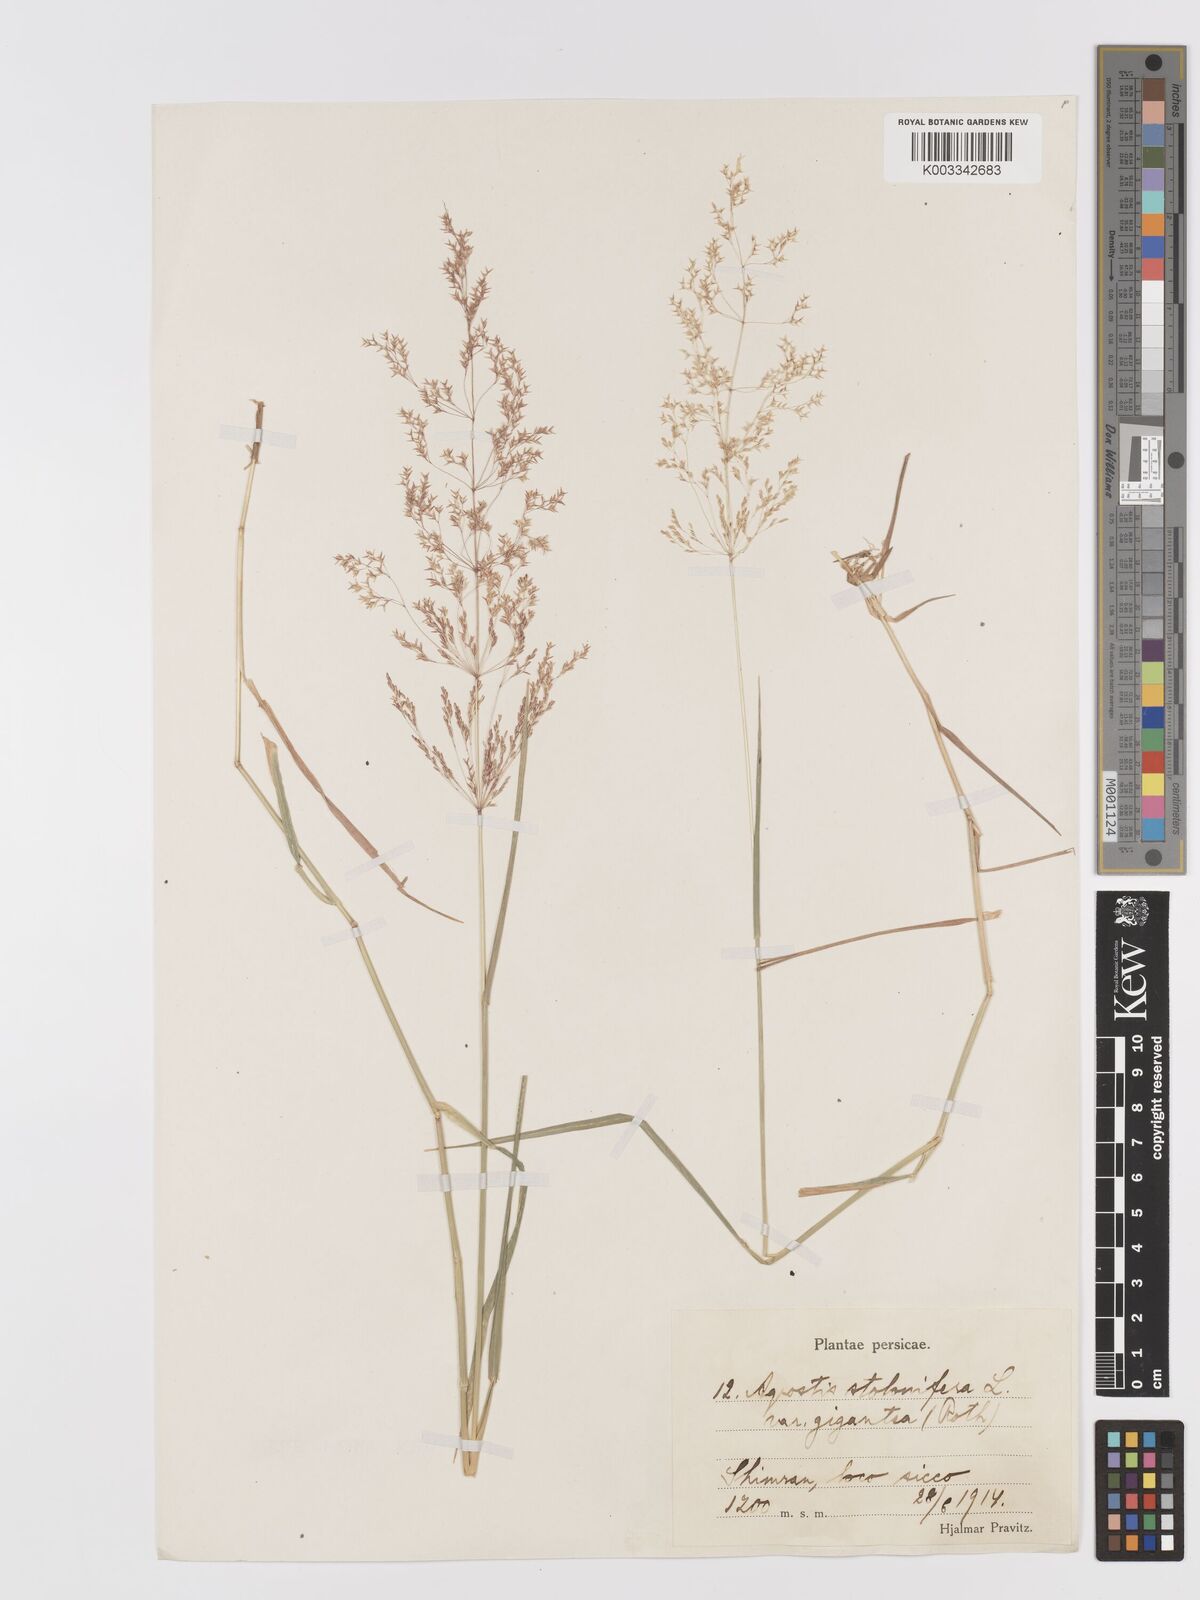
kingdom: Plantae
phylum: Tracheophyta
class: Liliopsida
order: Poales
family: Poaceae
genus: Agrostis
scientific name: Agrostis gigantea
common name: Black bent
